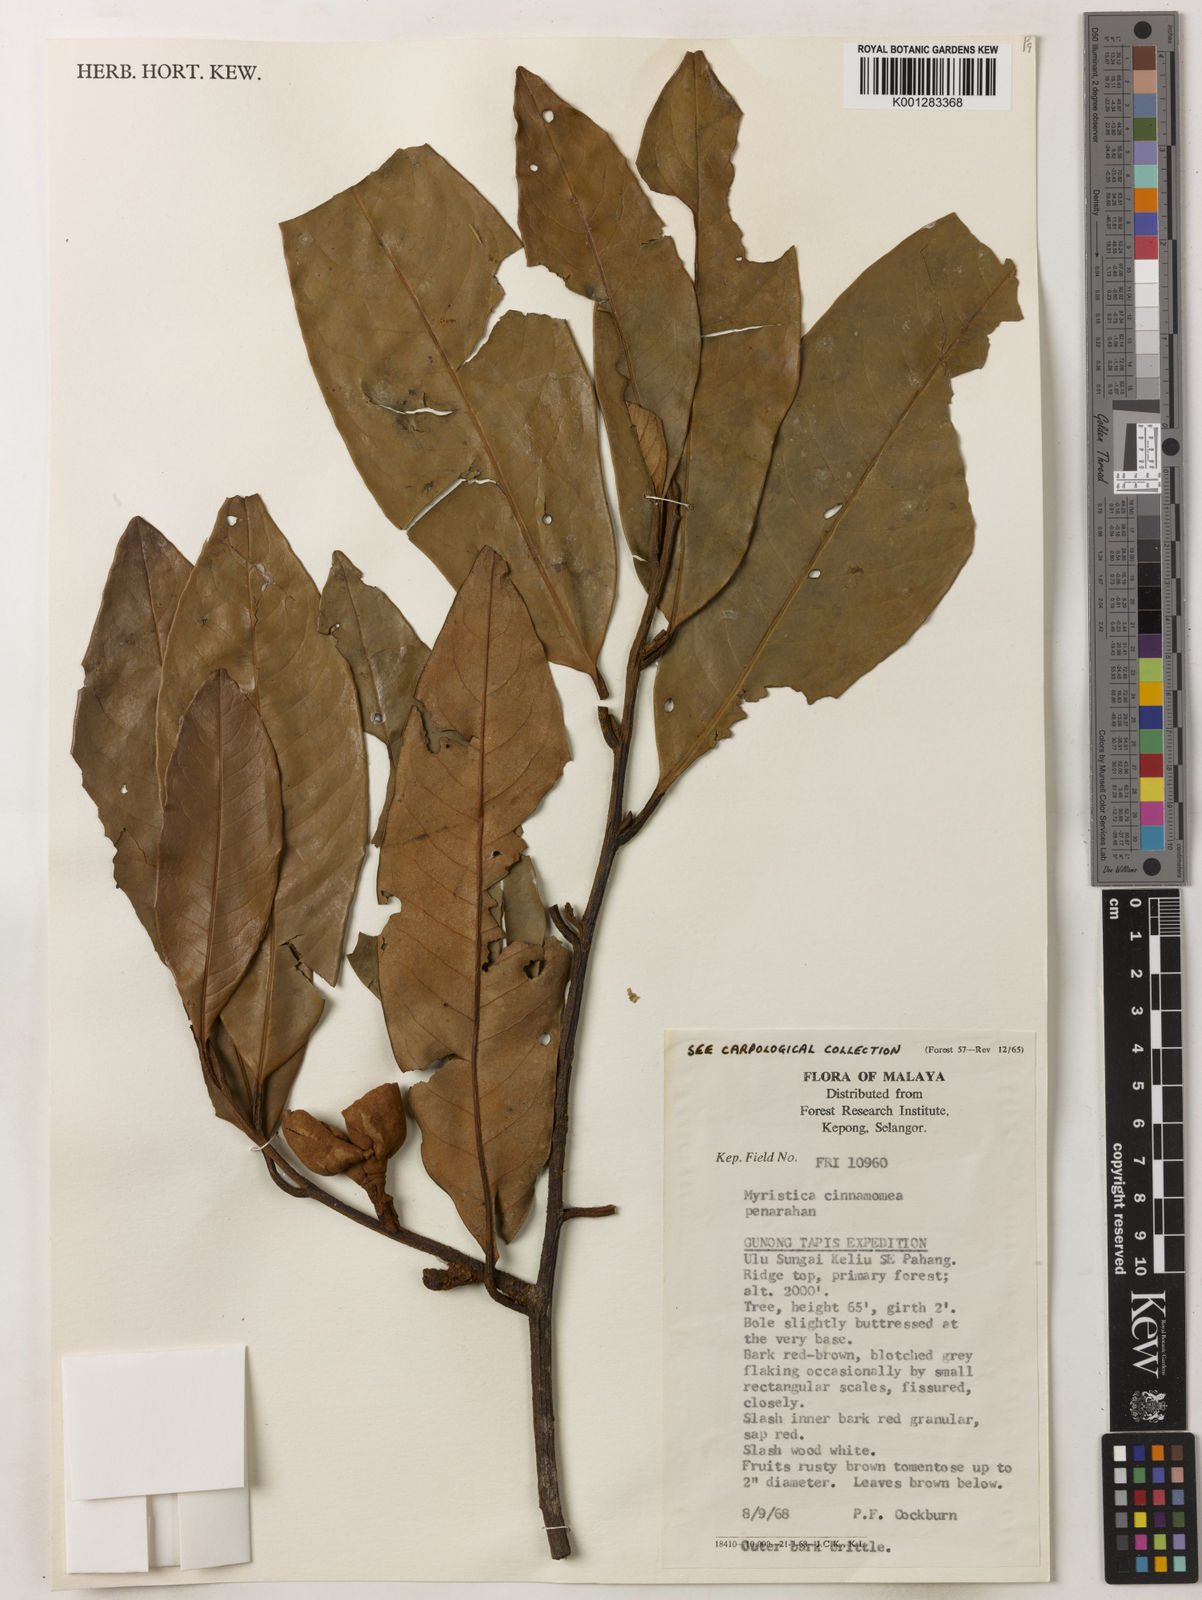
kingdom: Plantae
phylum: Tracheophyta
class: Magnoliopsida
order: Magnoliales
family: Myristicaceae
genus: Myristica
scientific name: Myristica cinnamomea
